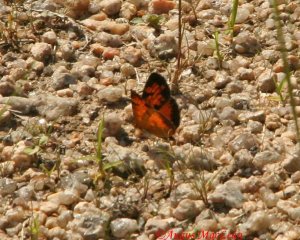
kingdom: Animalia
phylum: Arthropoda
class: Insecta
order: Lepidoptera
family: Lycaenidae
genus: Feniseca
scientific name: Feniseca tarquinius
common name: Harvester
